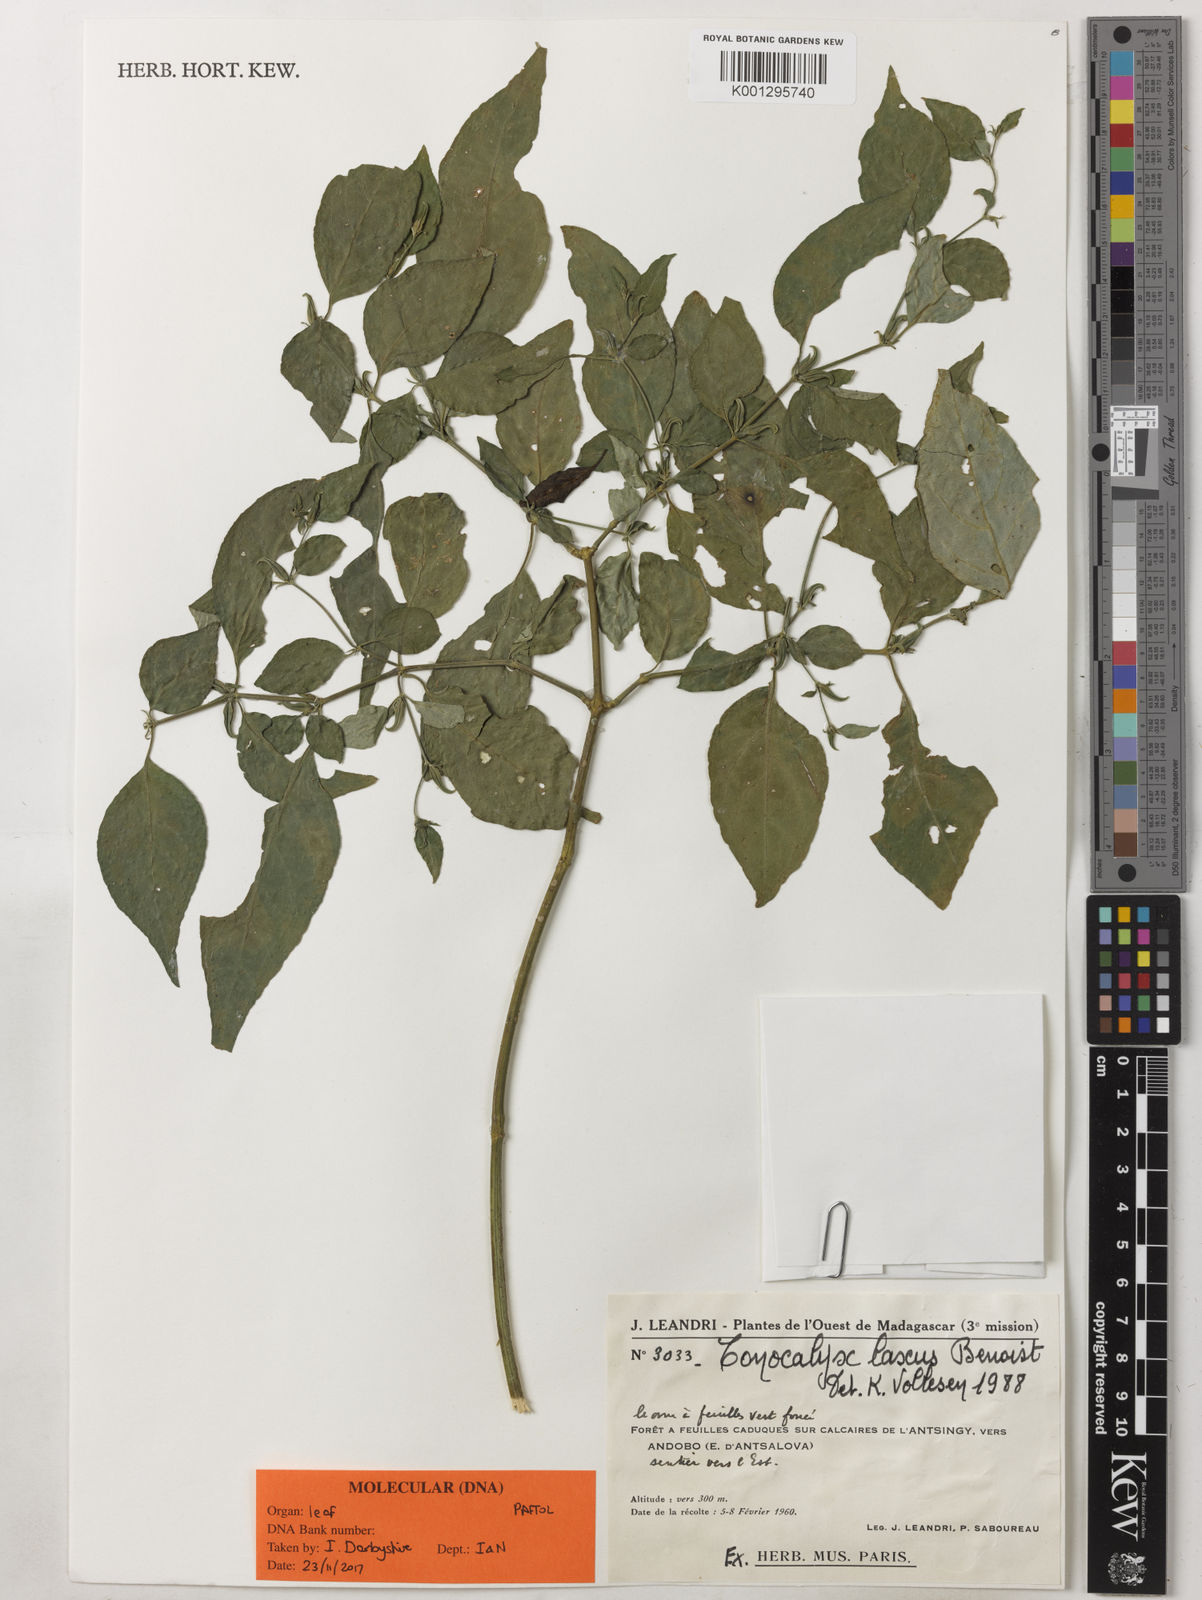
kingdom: Plantae
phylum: Tracheophyta
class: Magnoliopsida
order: Lamiales
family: Acanthaceae
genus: Isoglossa
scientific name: Isoglossa laxa
